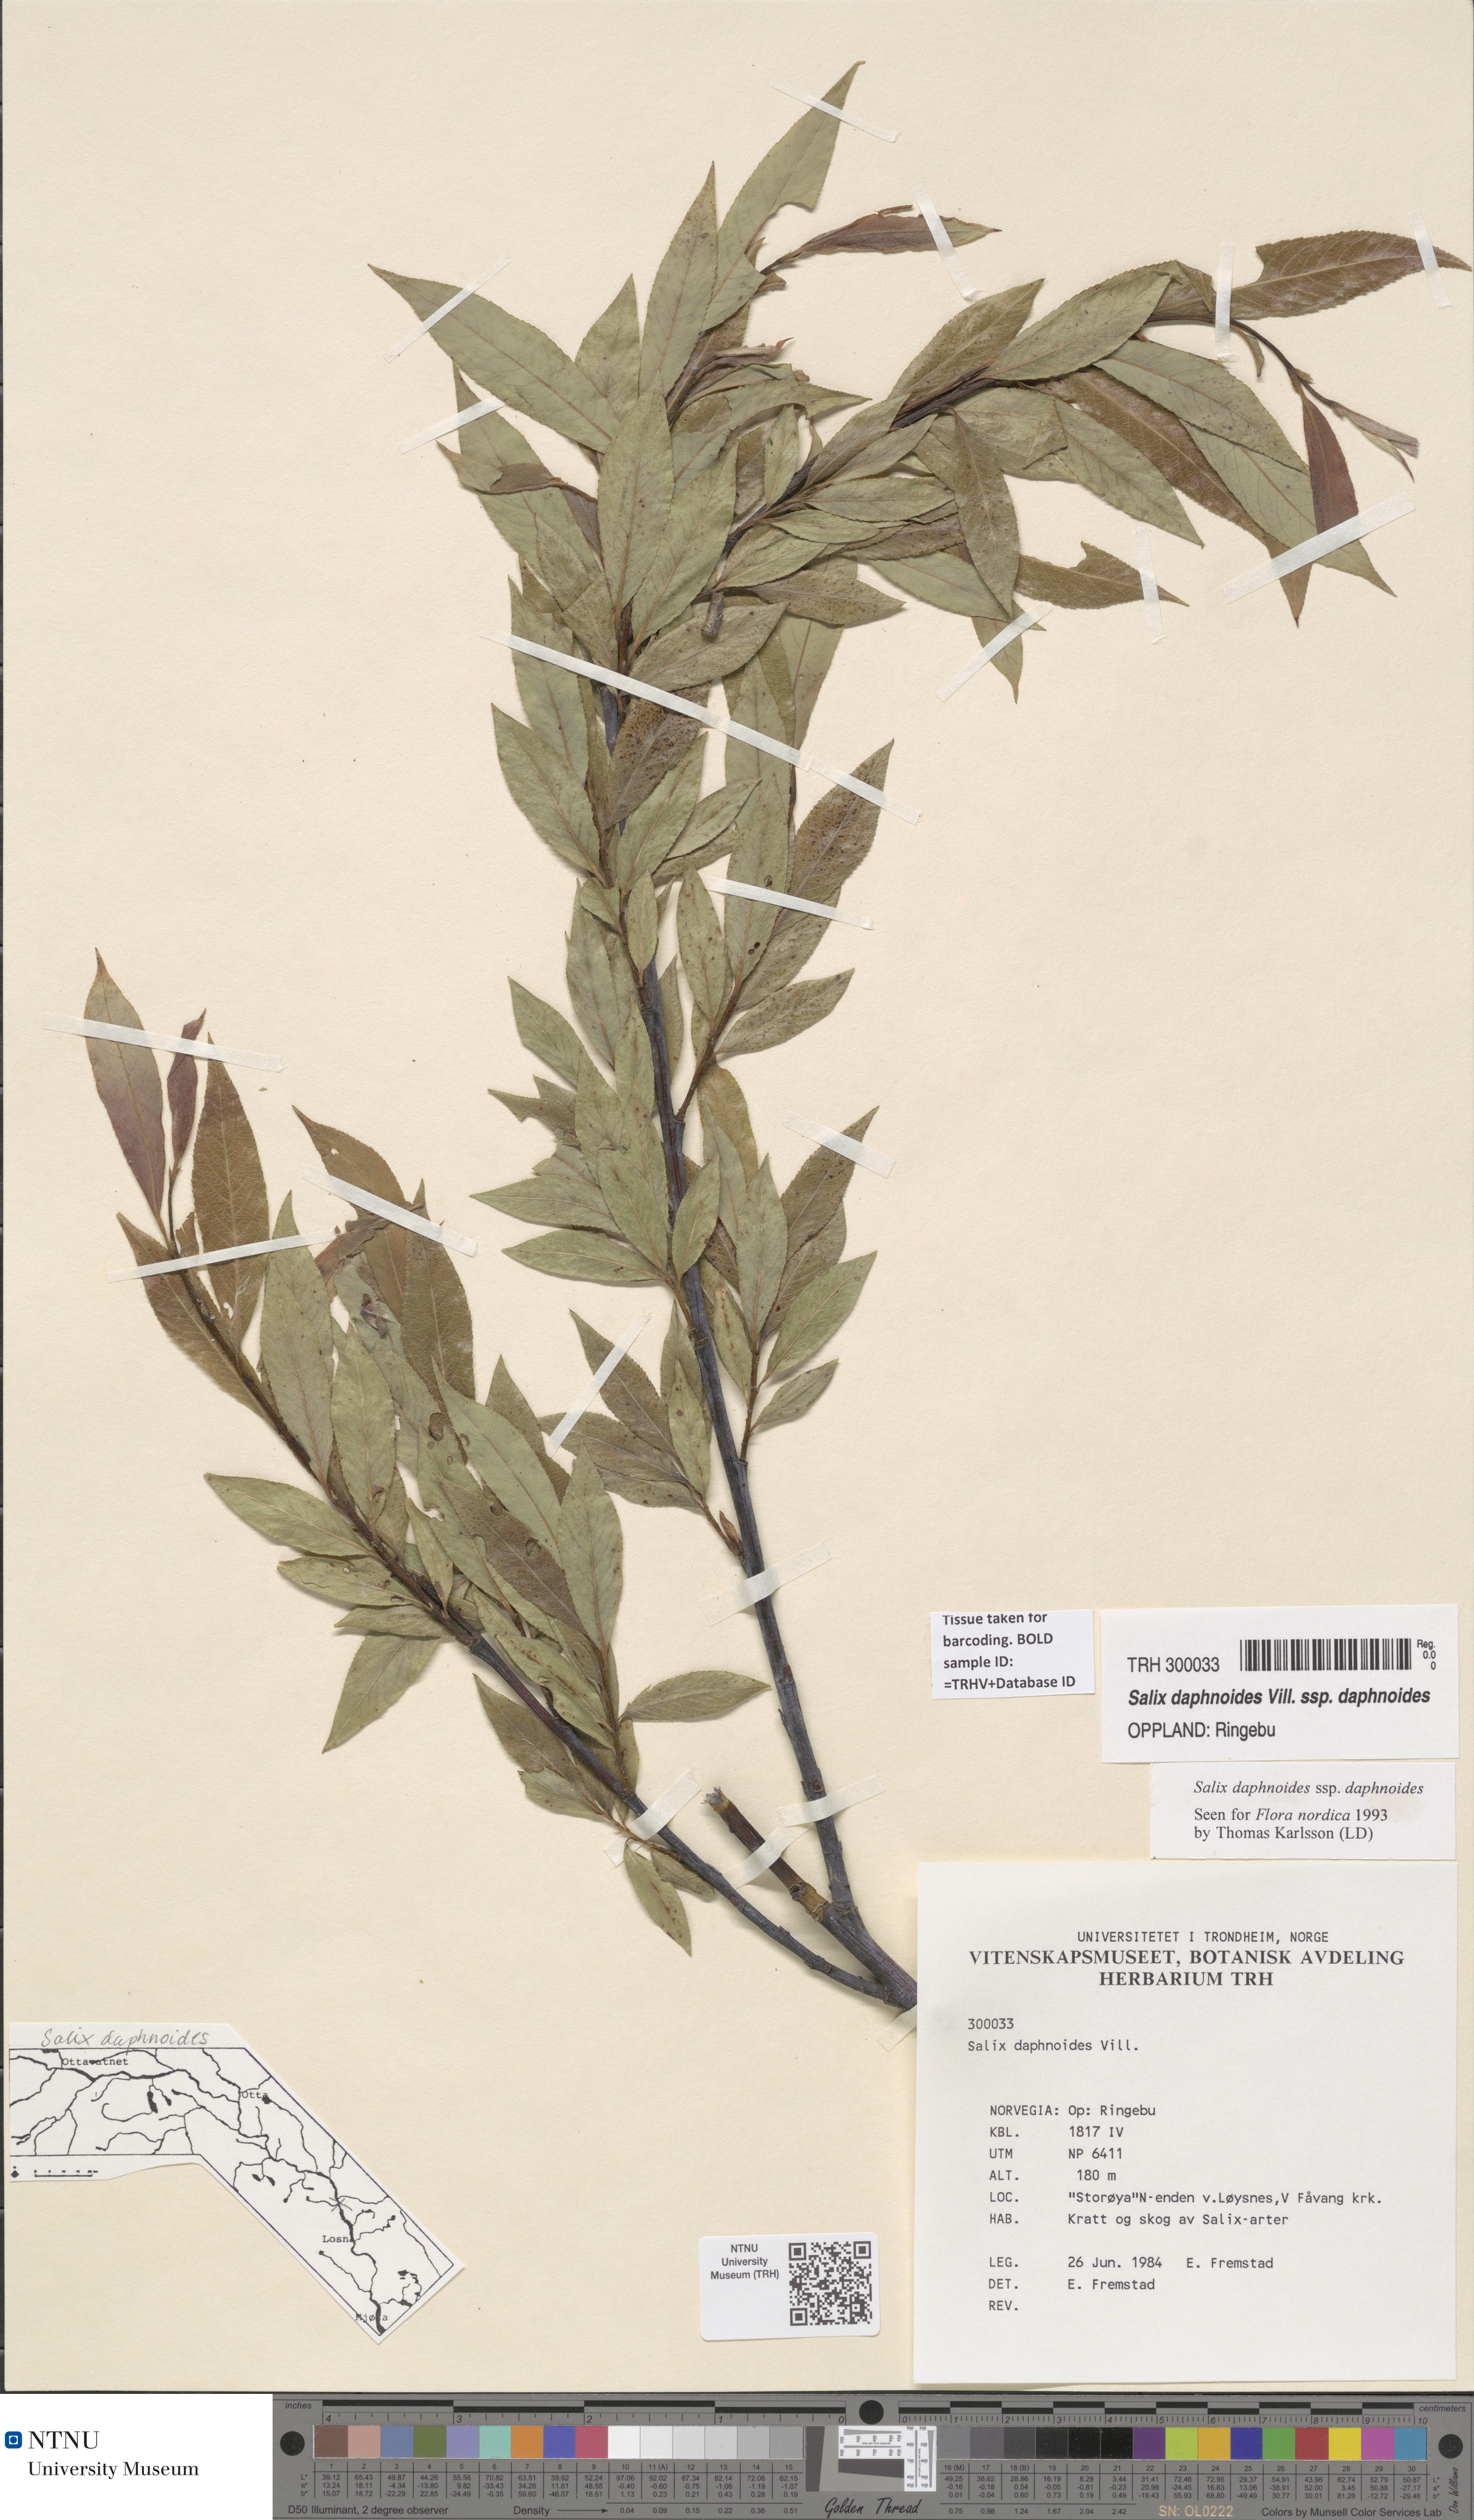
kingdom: Plantae
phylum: Tracheophyta
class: Magnoliopsida
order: Malpighiales
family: Salicaceae
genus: Salix
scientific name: Salix daphnoides
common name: European violet-willow
